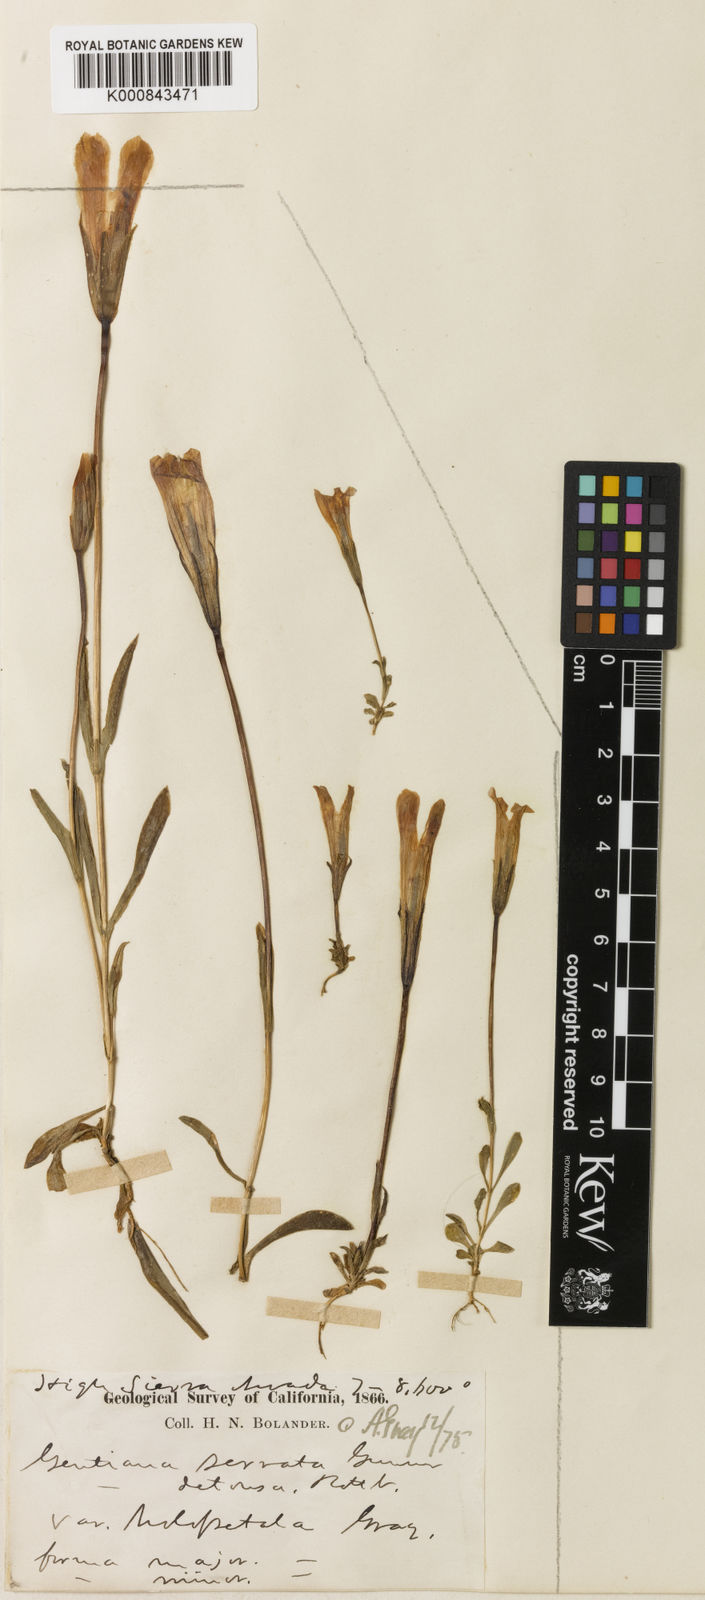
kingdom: Plantae
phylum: Tracheophyta
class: Magnoliopsida
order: Gentianales
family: Gentianaceae
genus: Gentianopsis
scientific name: Gentianopsis holopetala
